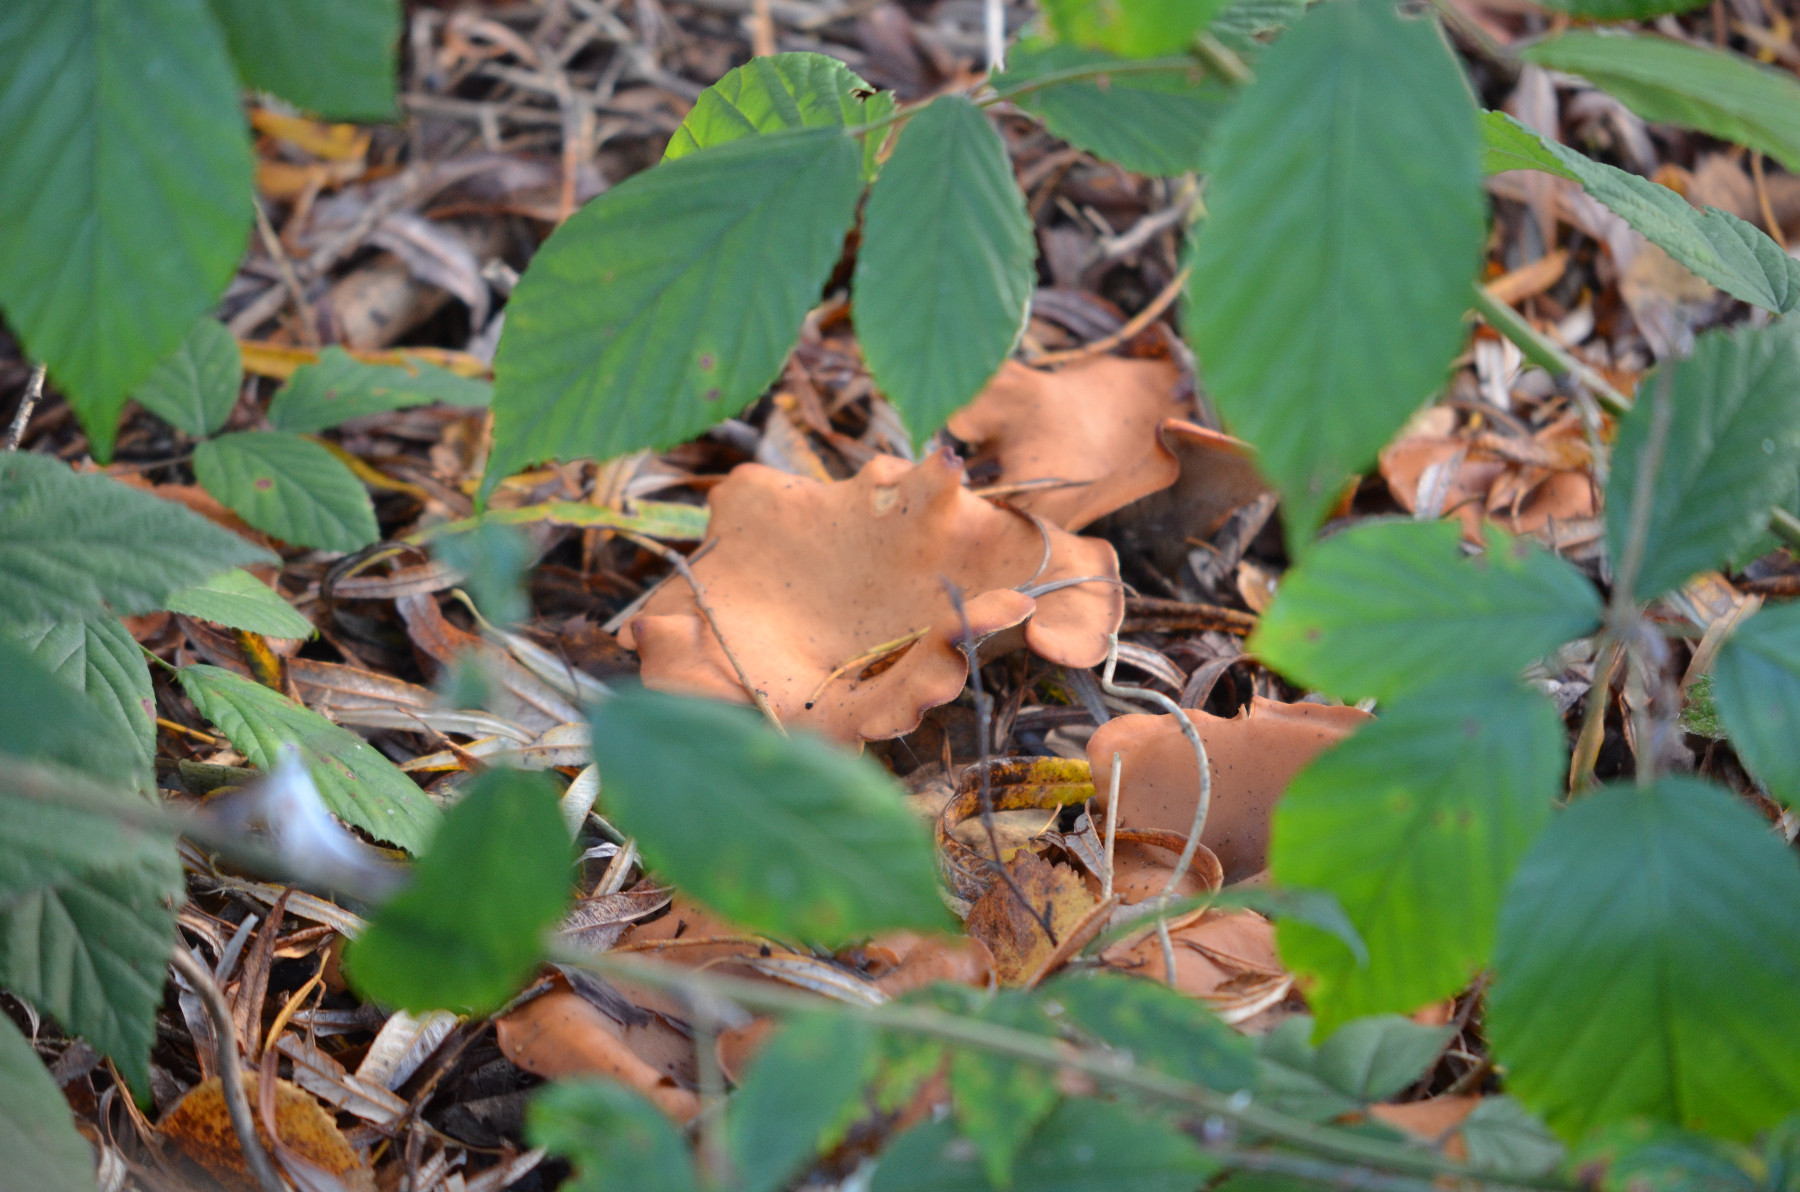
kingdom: Fungi
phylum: Basidiomycota
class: Agaricomycetes
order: Agaricales
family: Tricholomataceae
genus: Paralepista
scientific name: Paralepista flaccida
